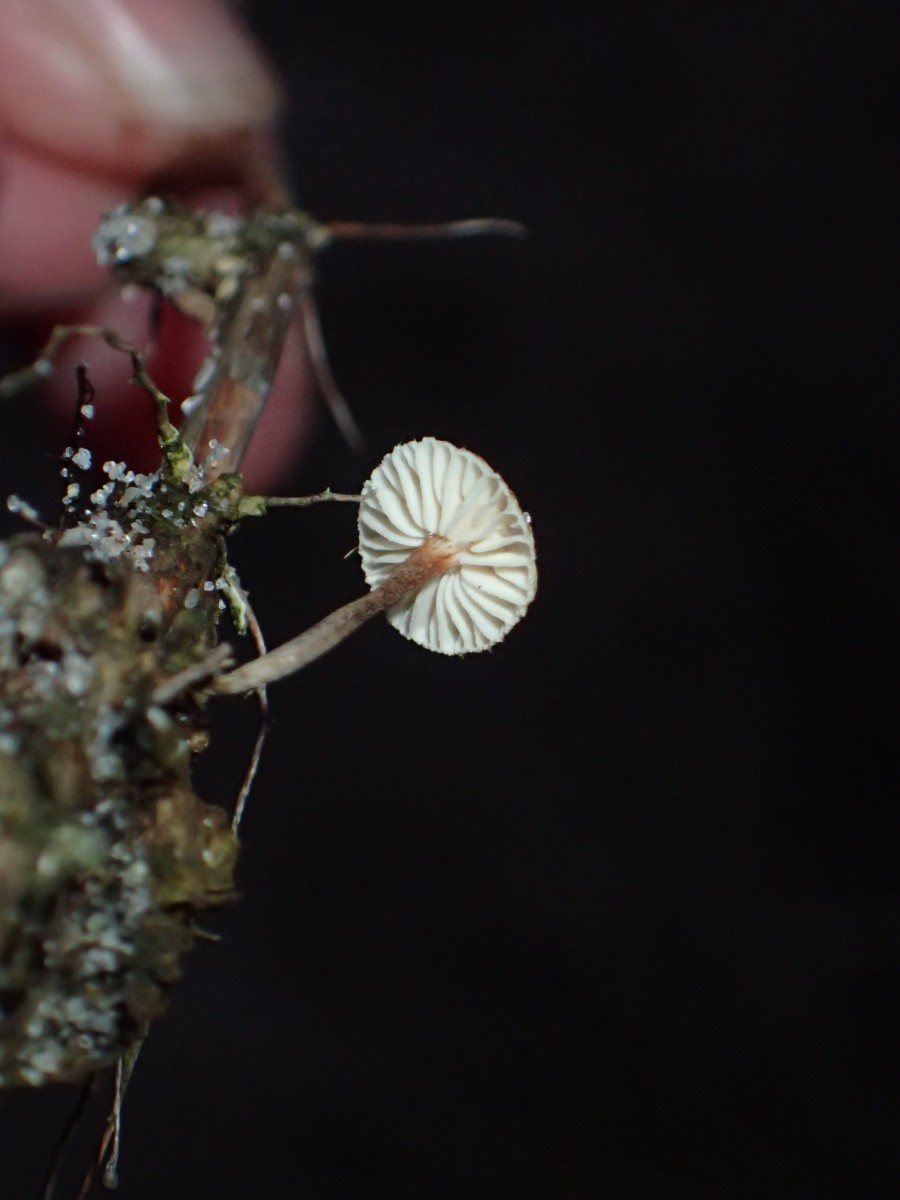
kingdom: Fungi
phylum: Basidiomycota
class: Agaricomycetes
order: Agaricales
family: Marasmiaceae
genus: Crinipellis
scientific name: Crinipellis scabella
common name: børstefod
